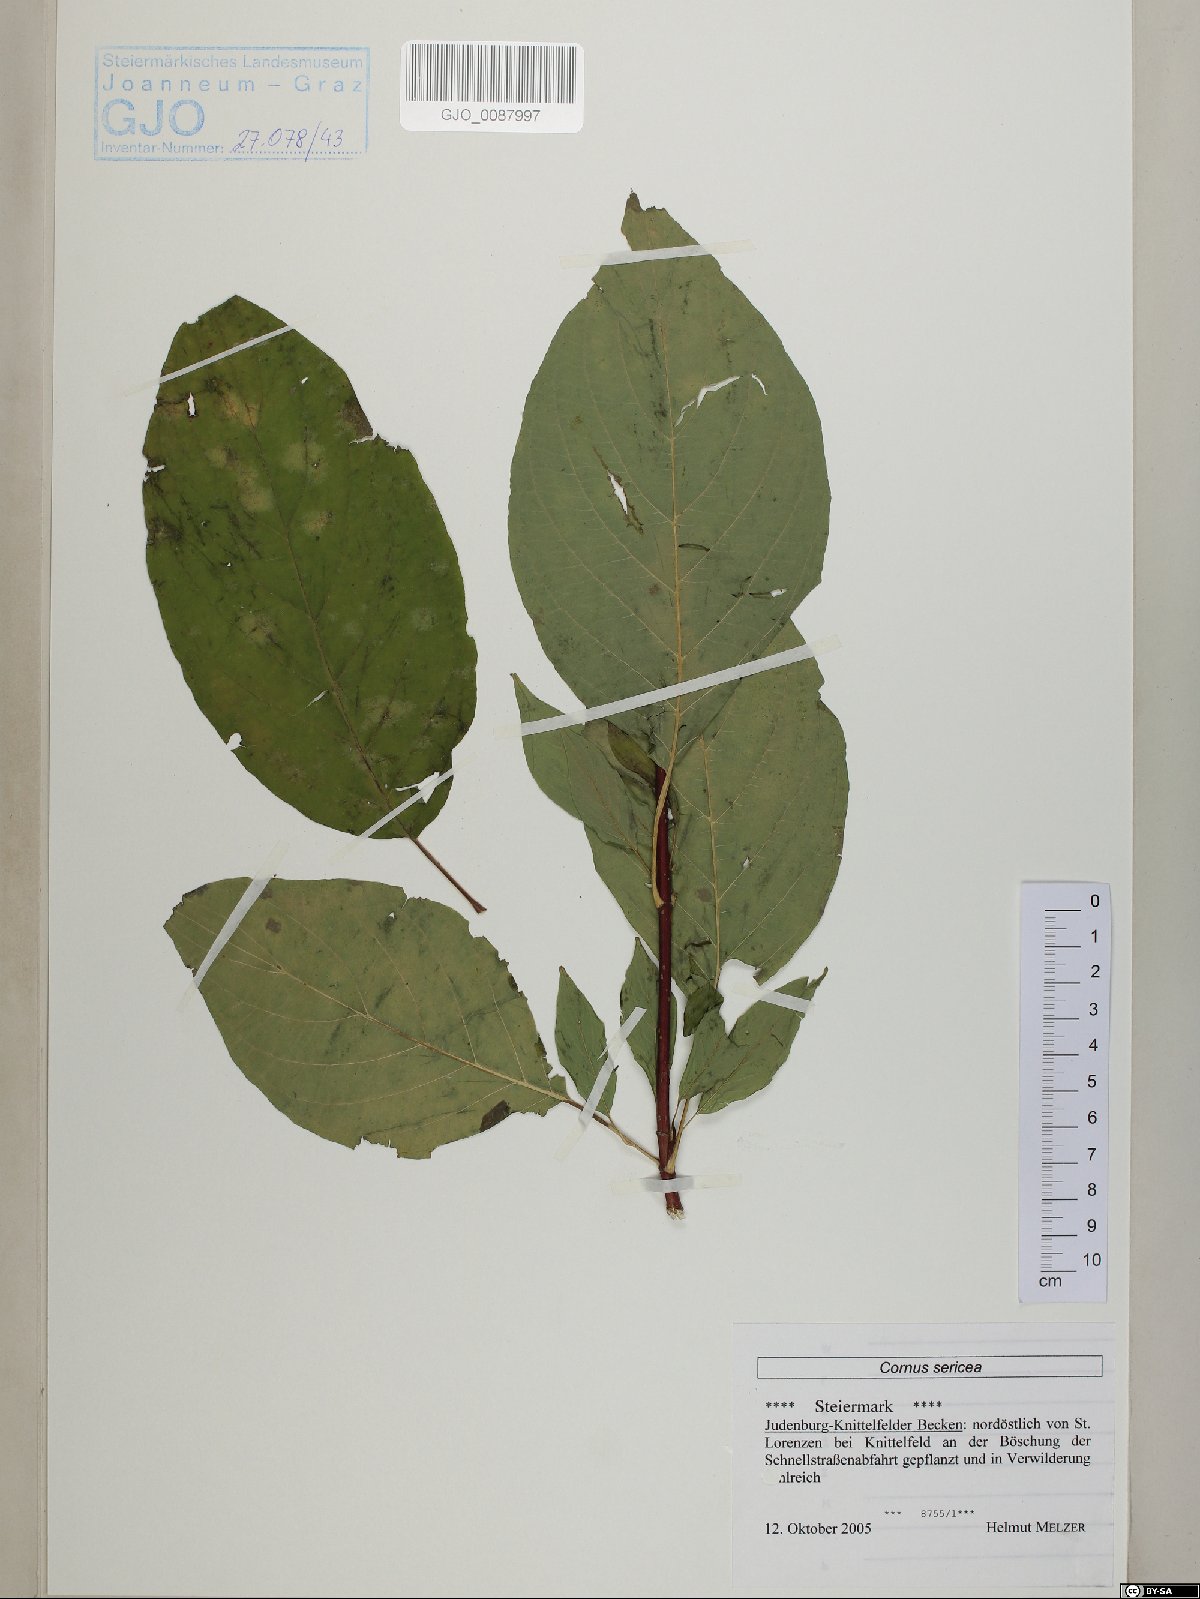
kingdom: Plantae
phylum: Tracheophyta
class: Magnoliopsida
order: Cornales
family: Cornaceae
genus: Cornus
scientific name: Cornus sericea
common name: Red-osier dogwood
